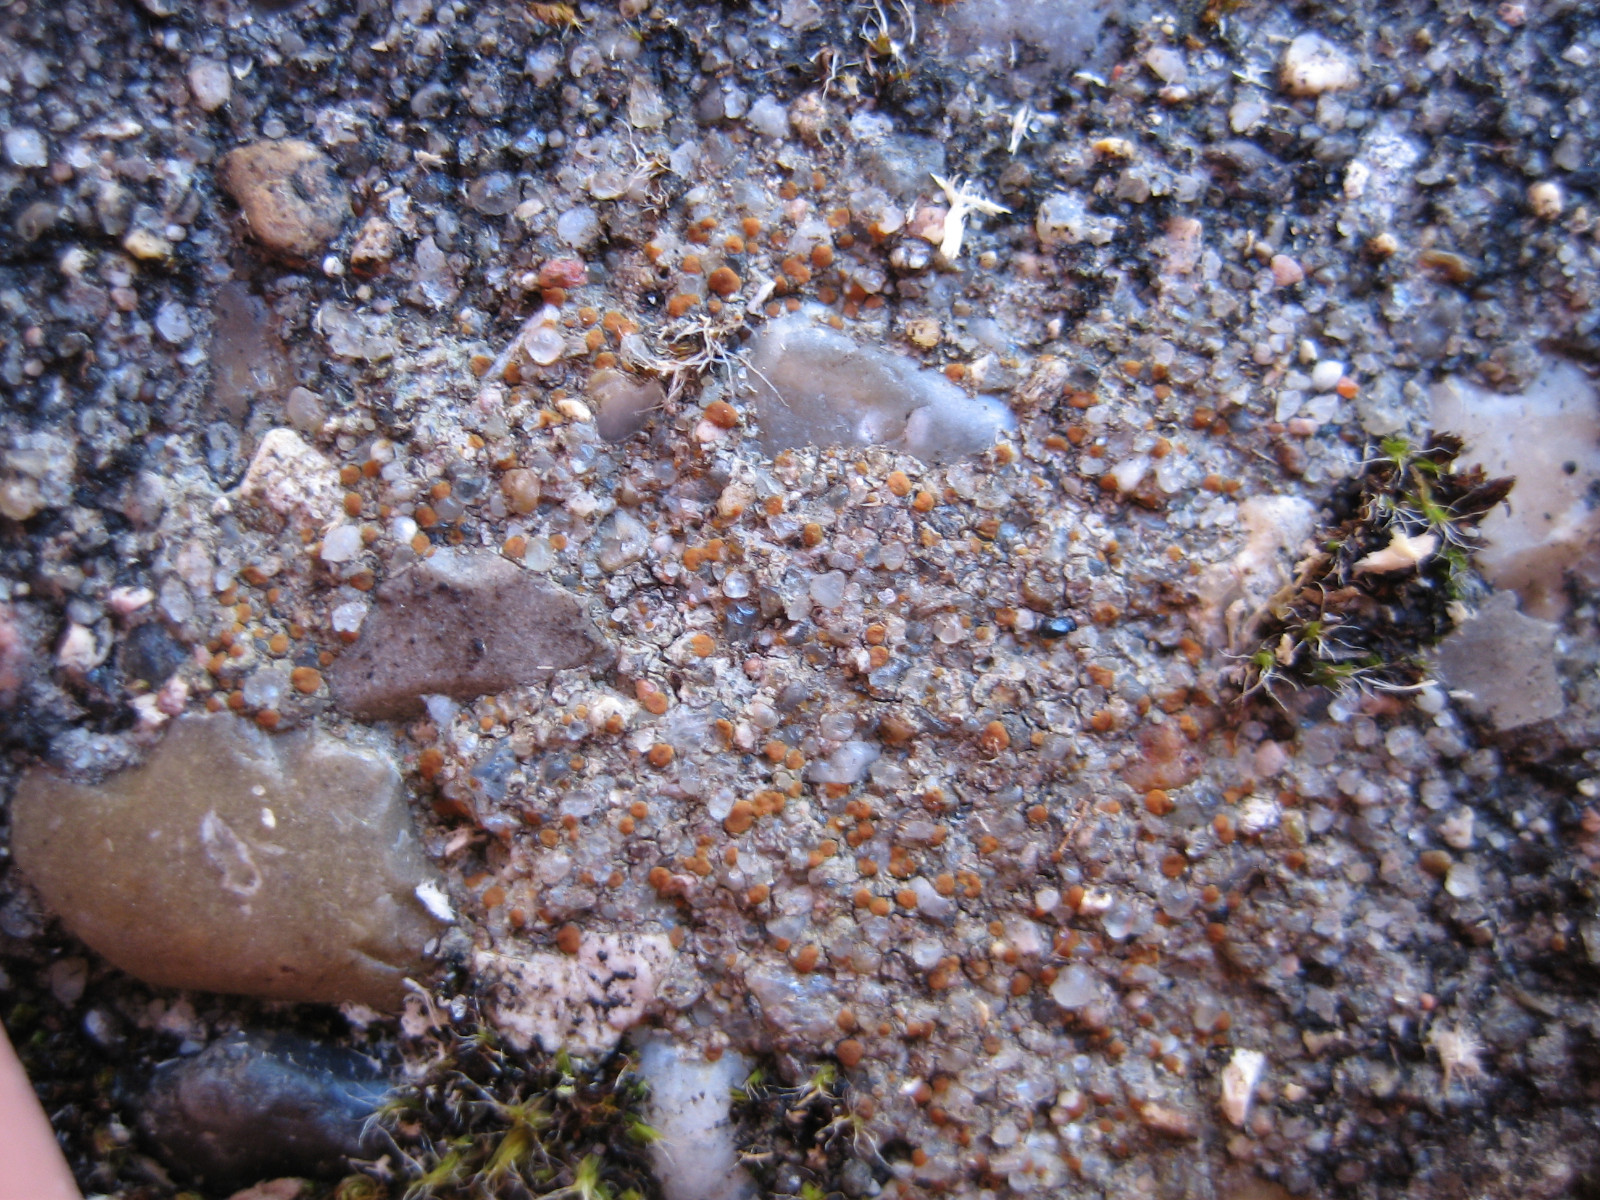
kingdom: Fungi
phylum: Ascomycota
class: Lecanoromycetes
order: Lecanorales
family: Psoraceae
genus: Protoblastenia
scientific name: Protoblastenia rupestris
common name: kalk-gulskivelav
